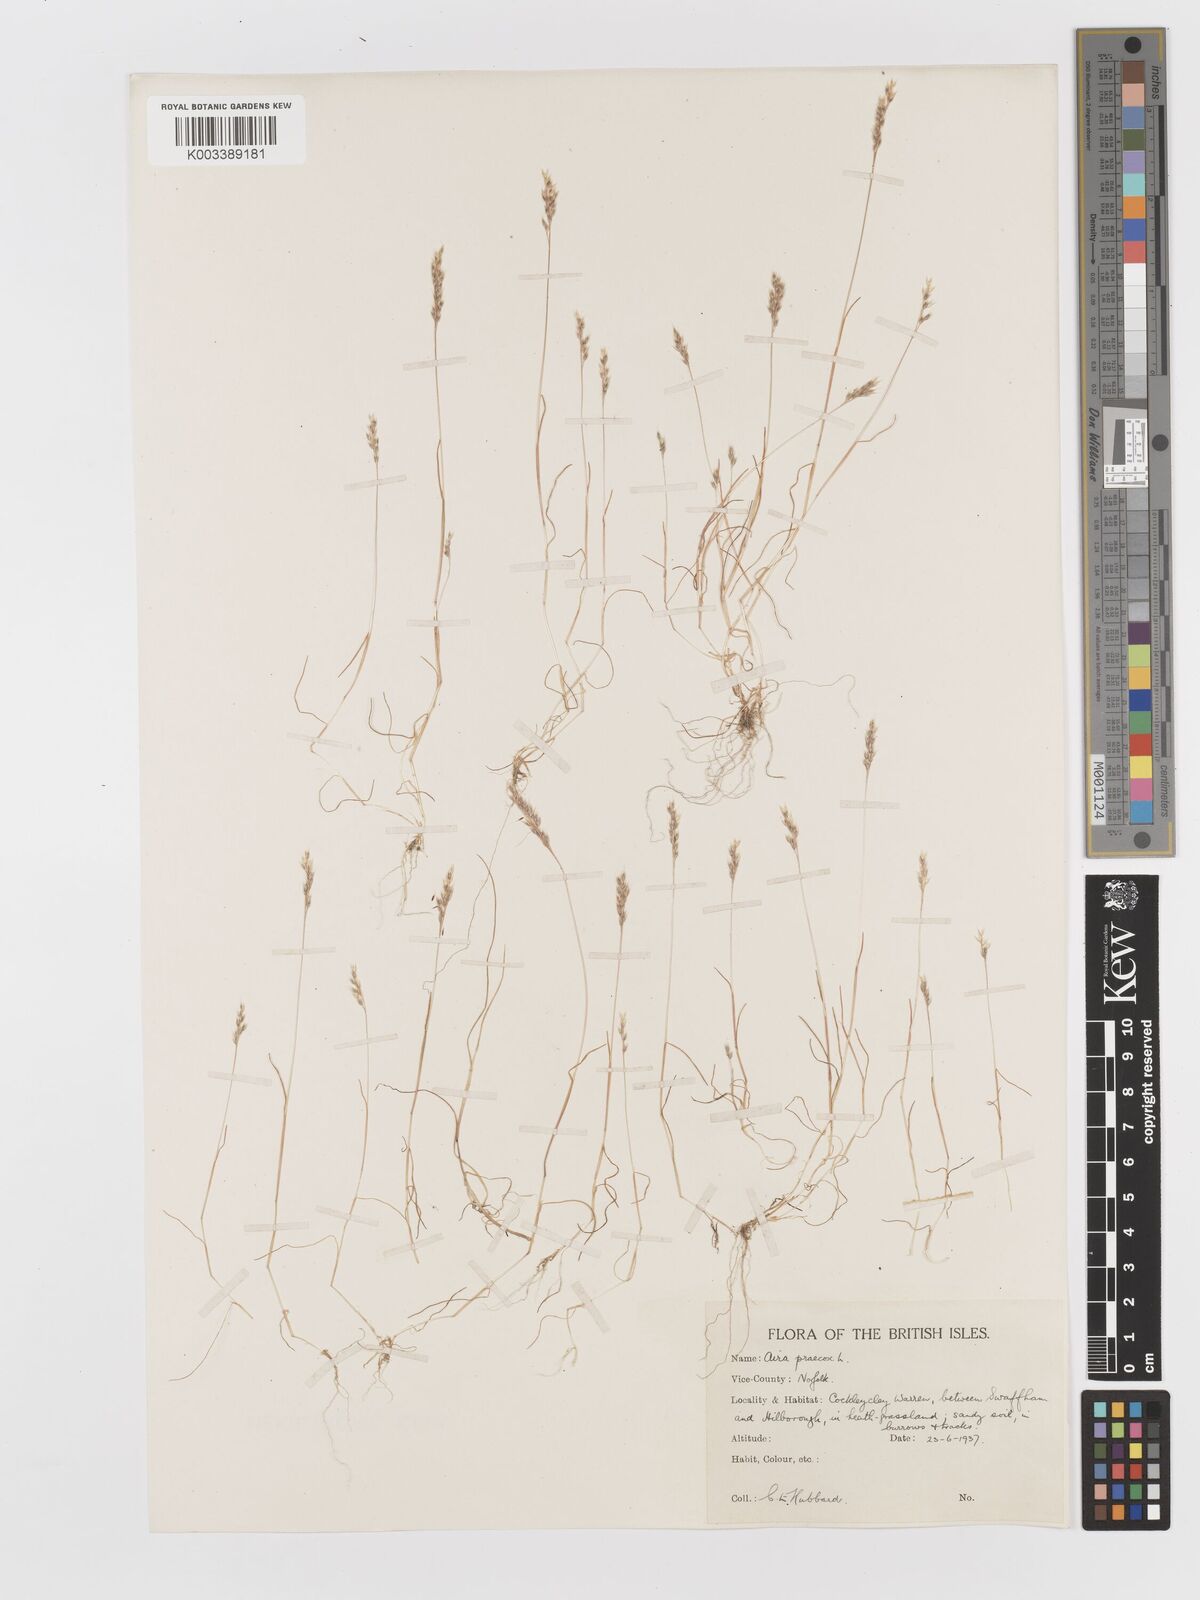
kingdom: Plantae
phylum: Tracheophyta
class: Liliopsida
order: Poales
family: Poaceae
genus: Aira
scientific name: Aira praecox
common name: Early hair-grass
